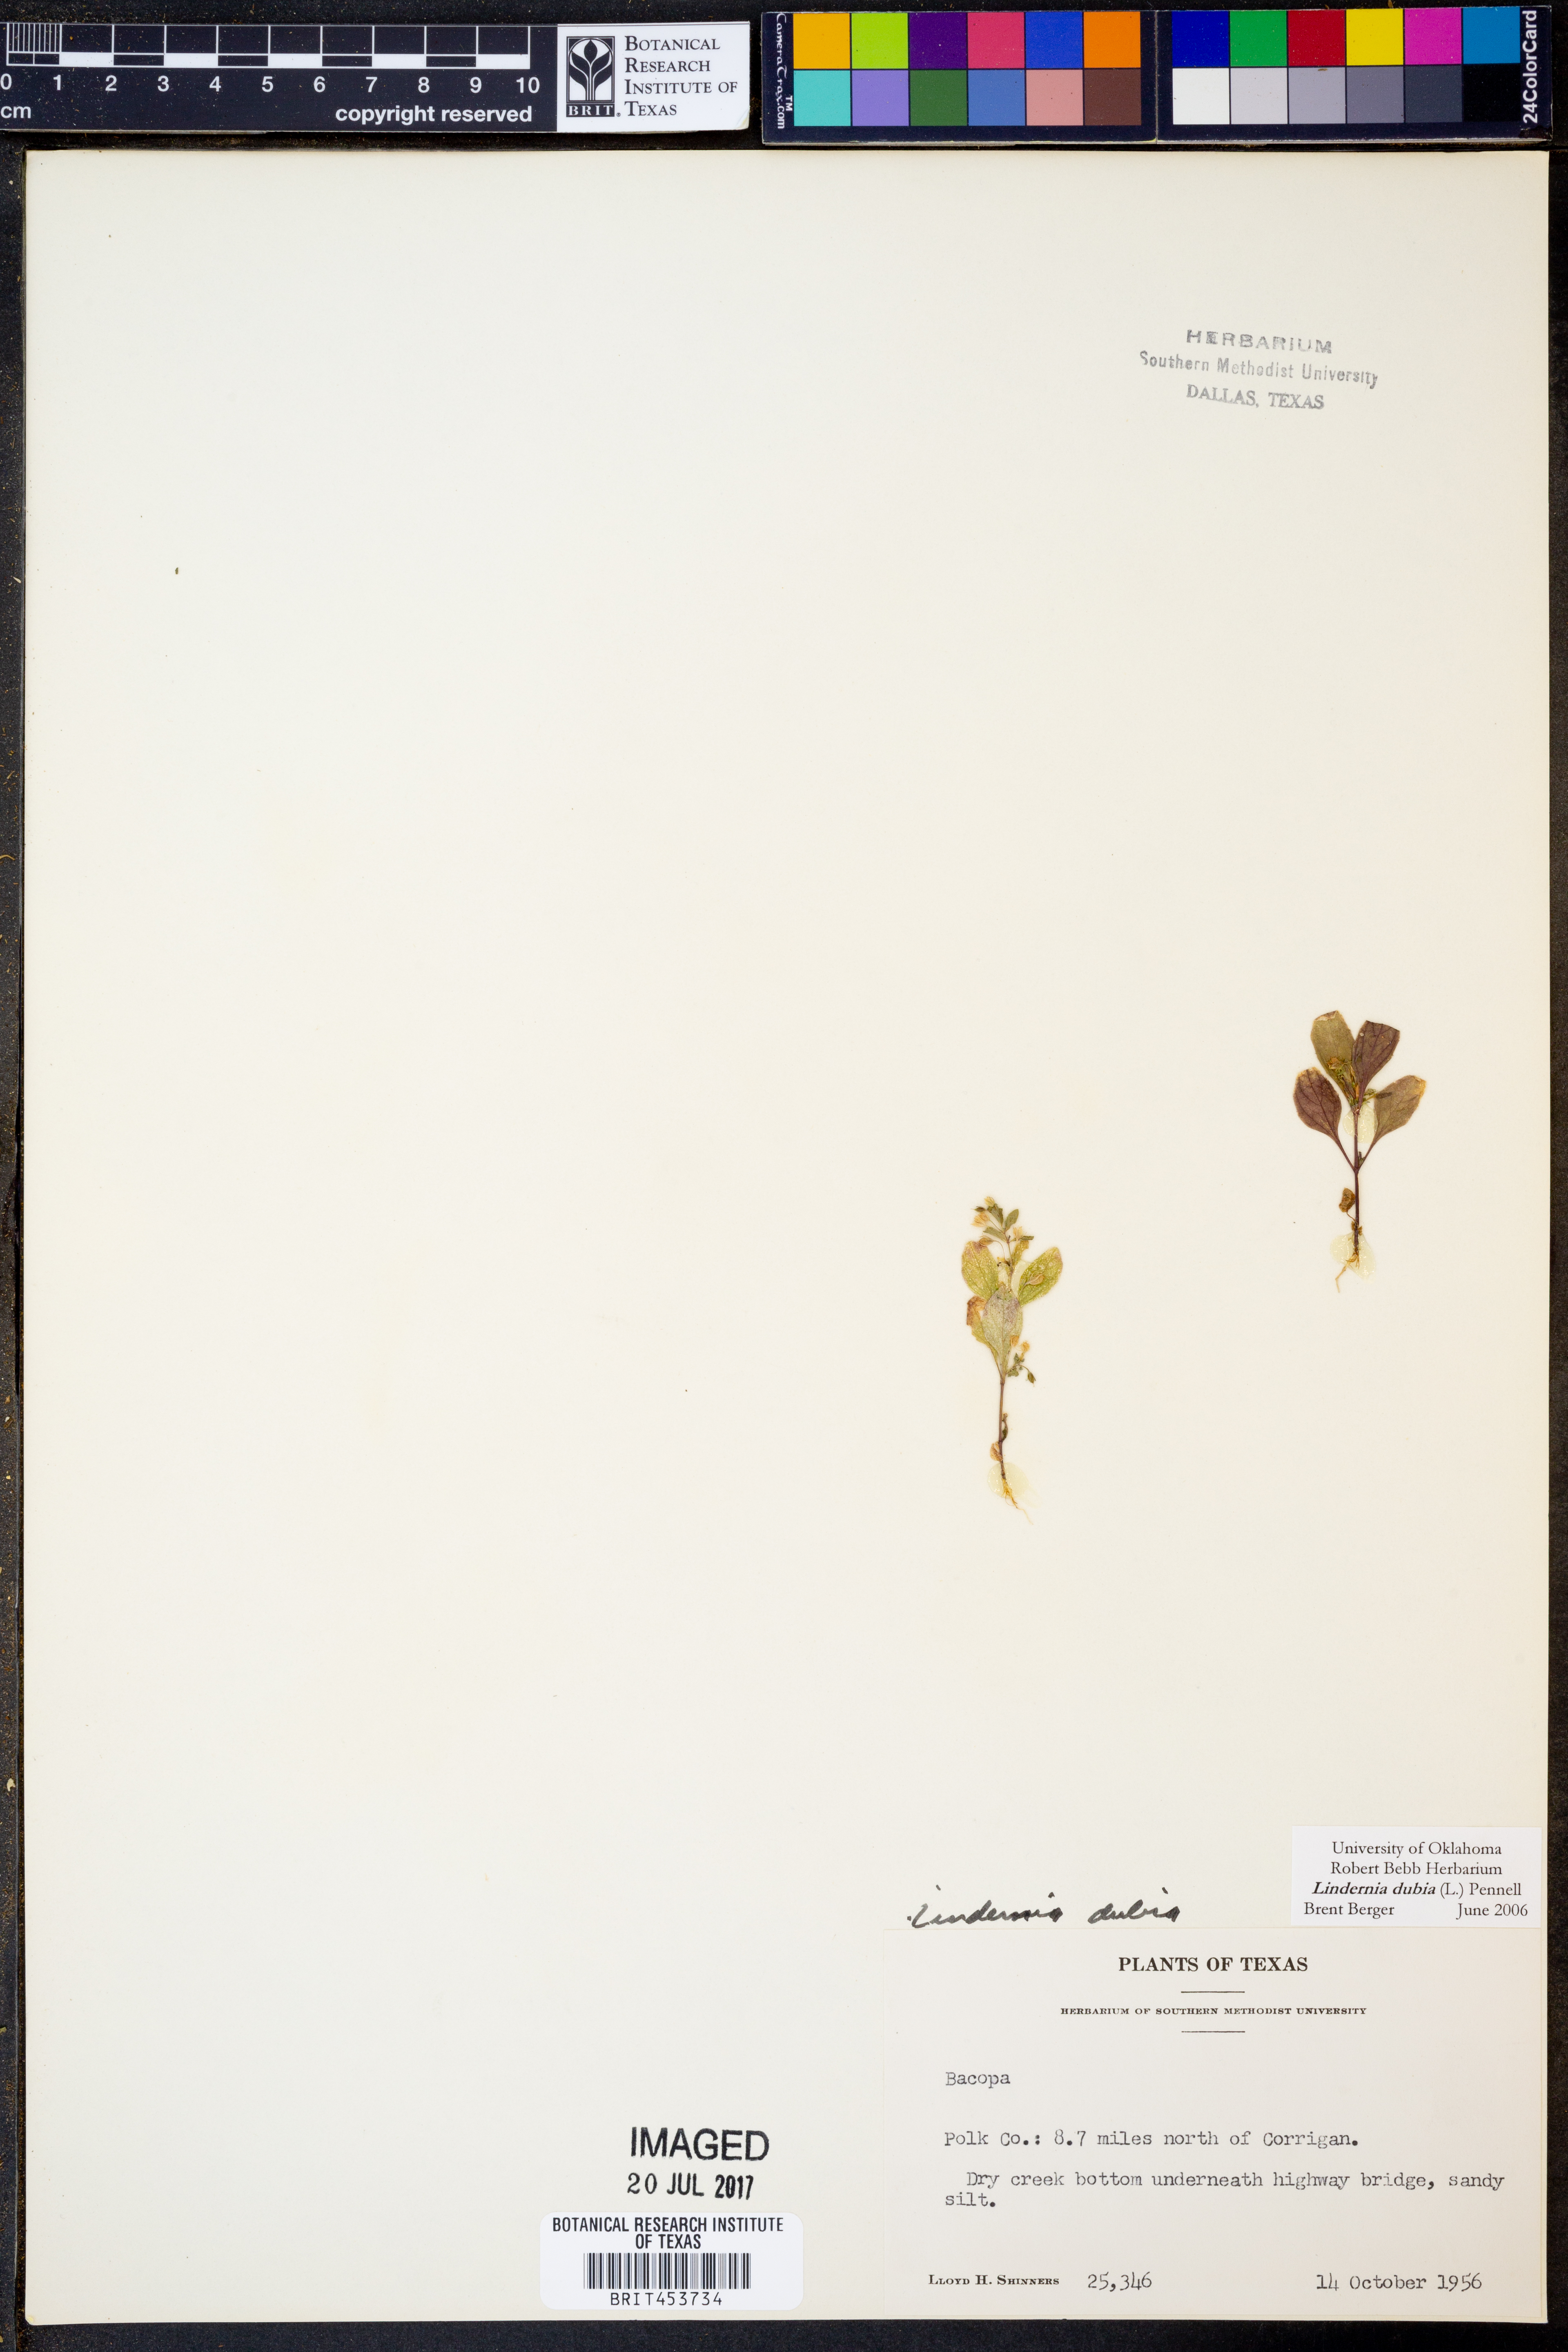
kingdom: Plantae
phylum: Tracheophyta
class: Magnoliopsida
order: Lamiales
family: Linderniaceae
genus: Lindernia
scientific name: Lindernia dubia
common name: Annual false pimpernel
